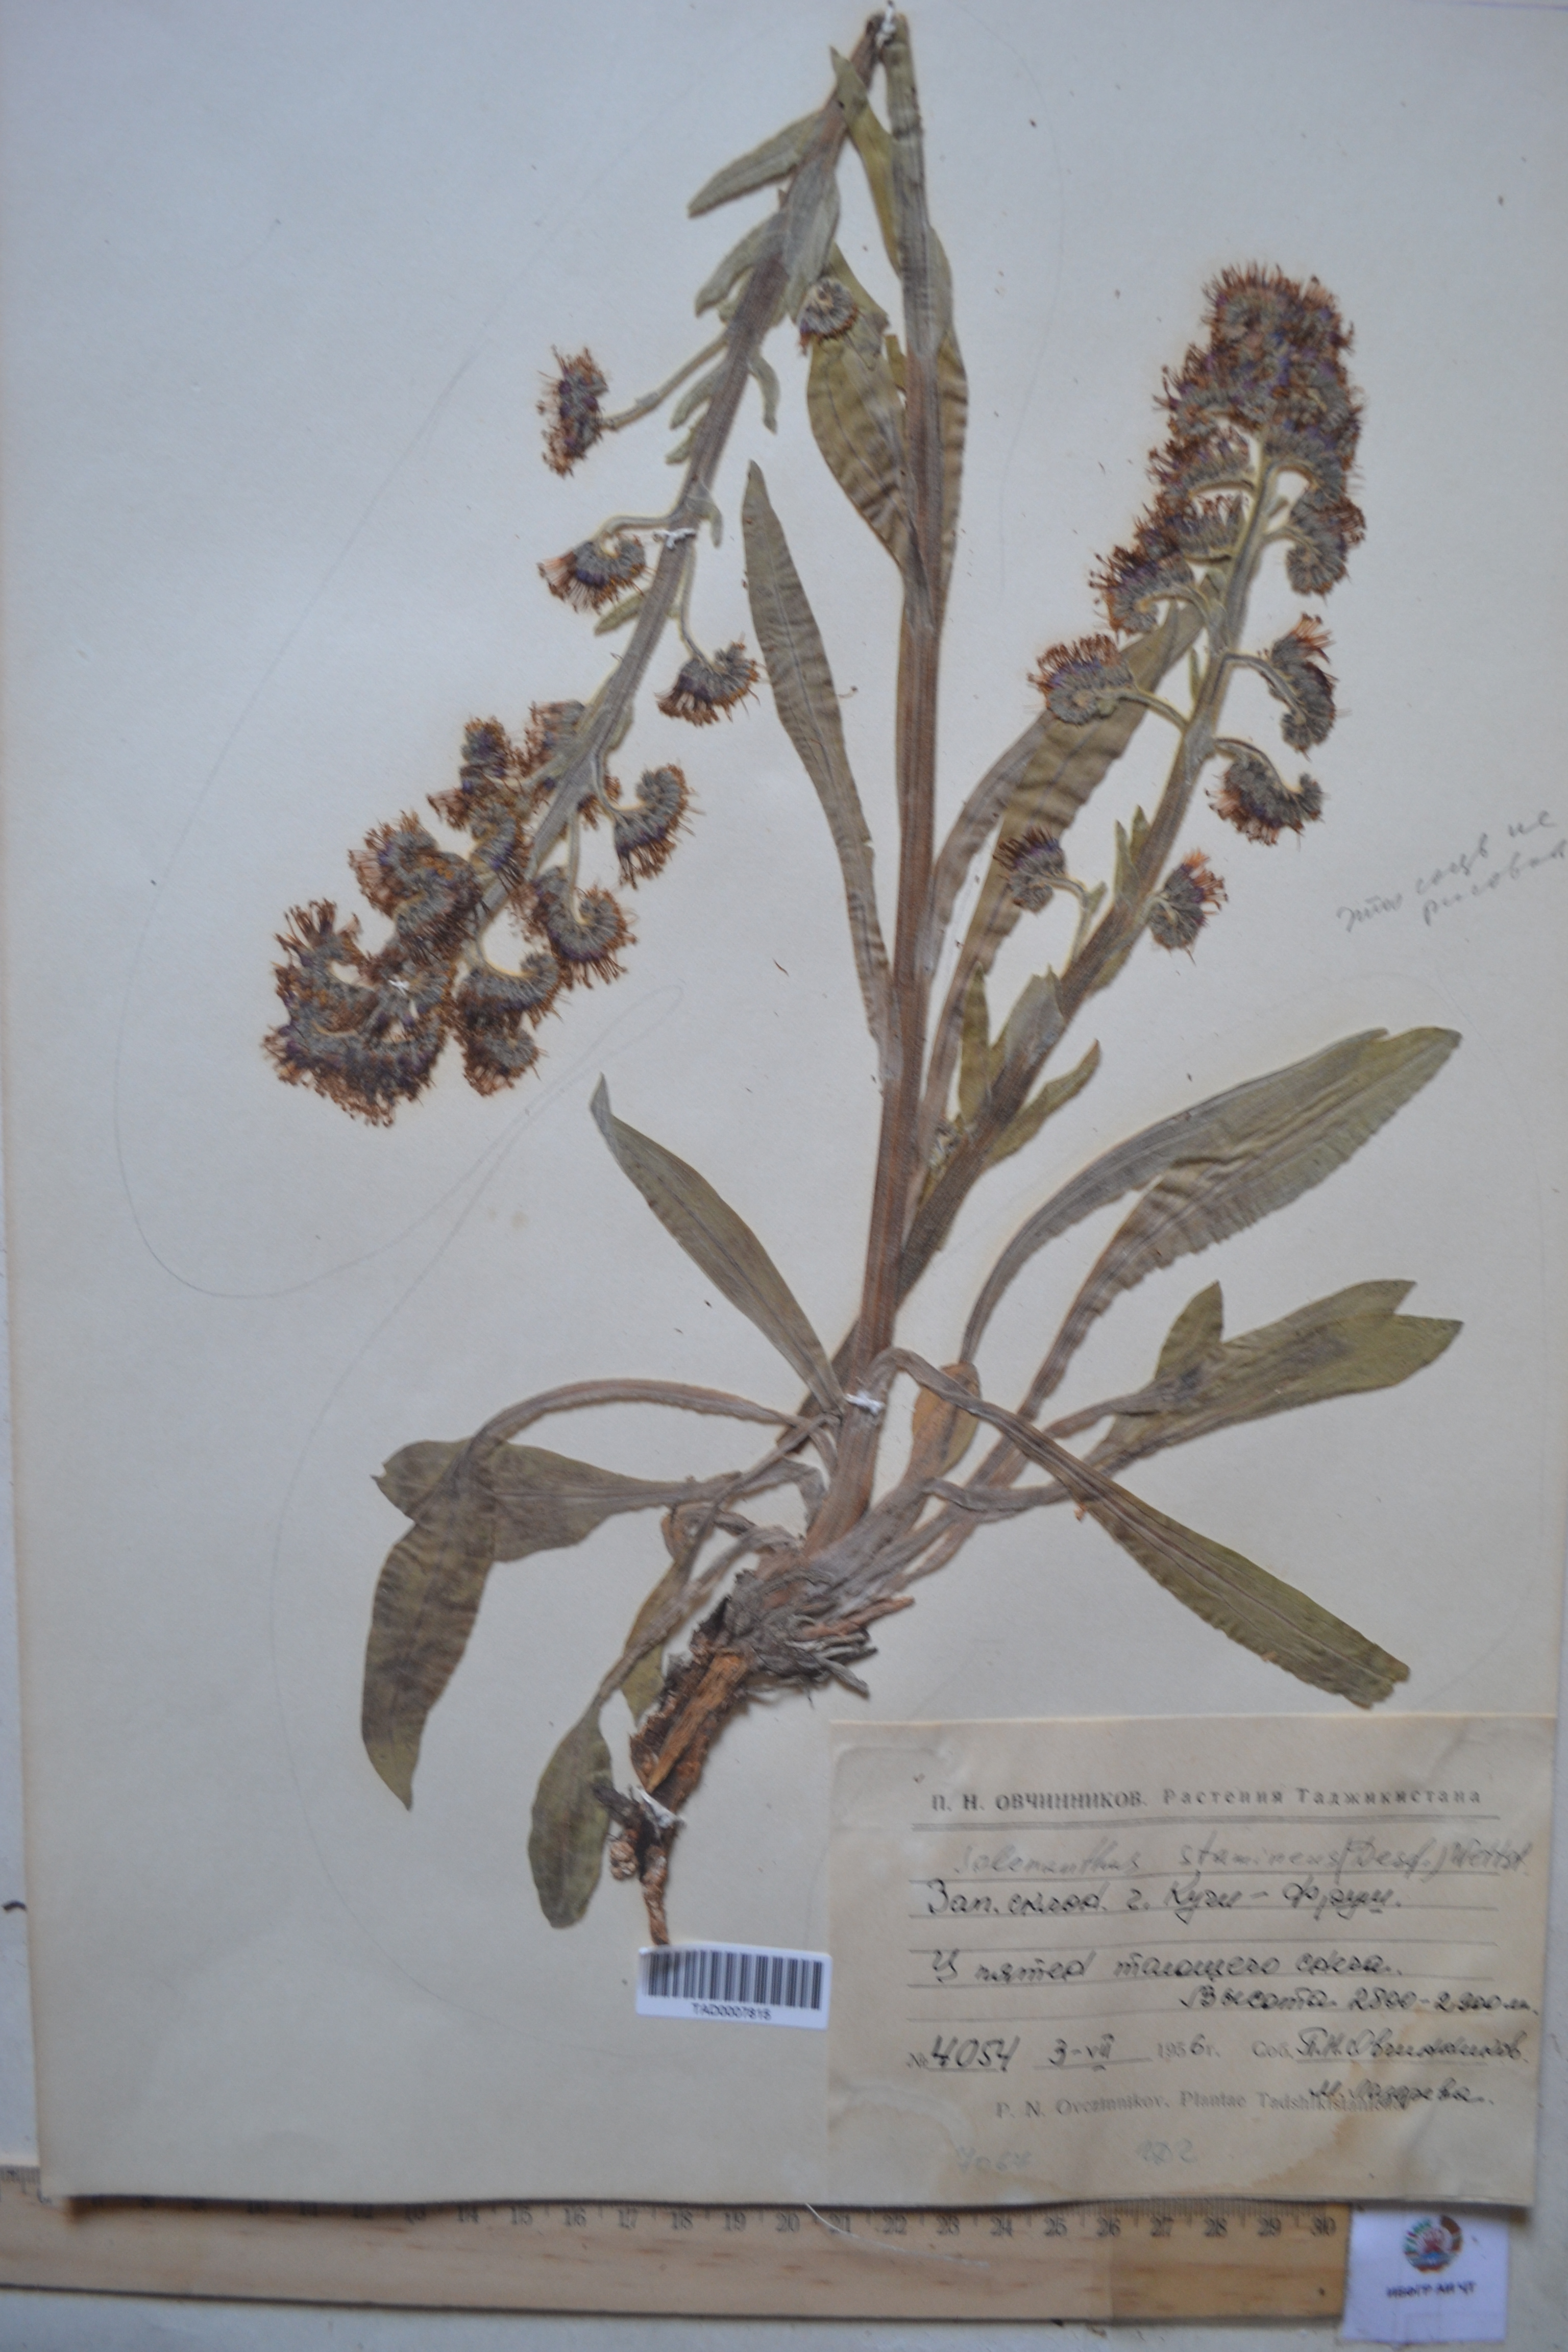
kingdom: Plantae
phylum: Tracheophyta
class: Magnoliopsida
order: Boraginales
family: Boraginaceae
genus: Solenanthus
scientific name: Solenanthus stamineus
